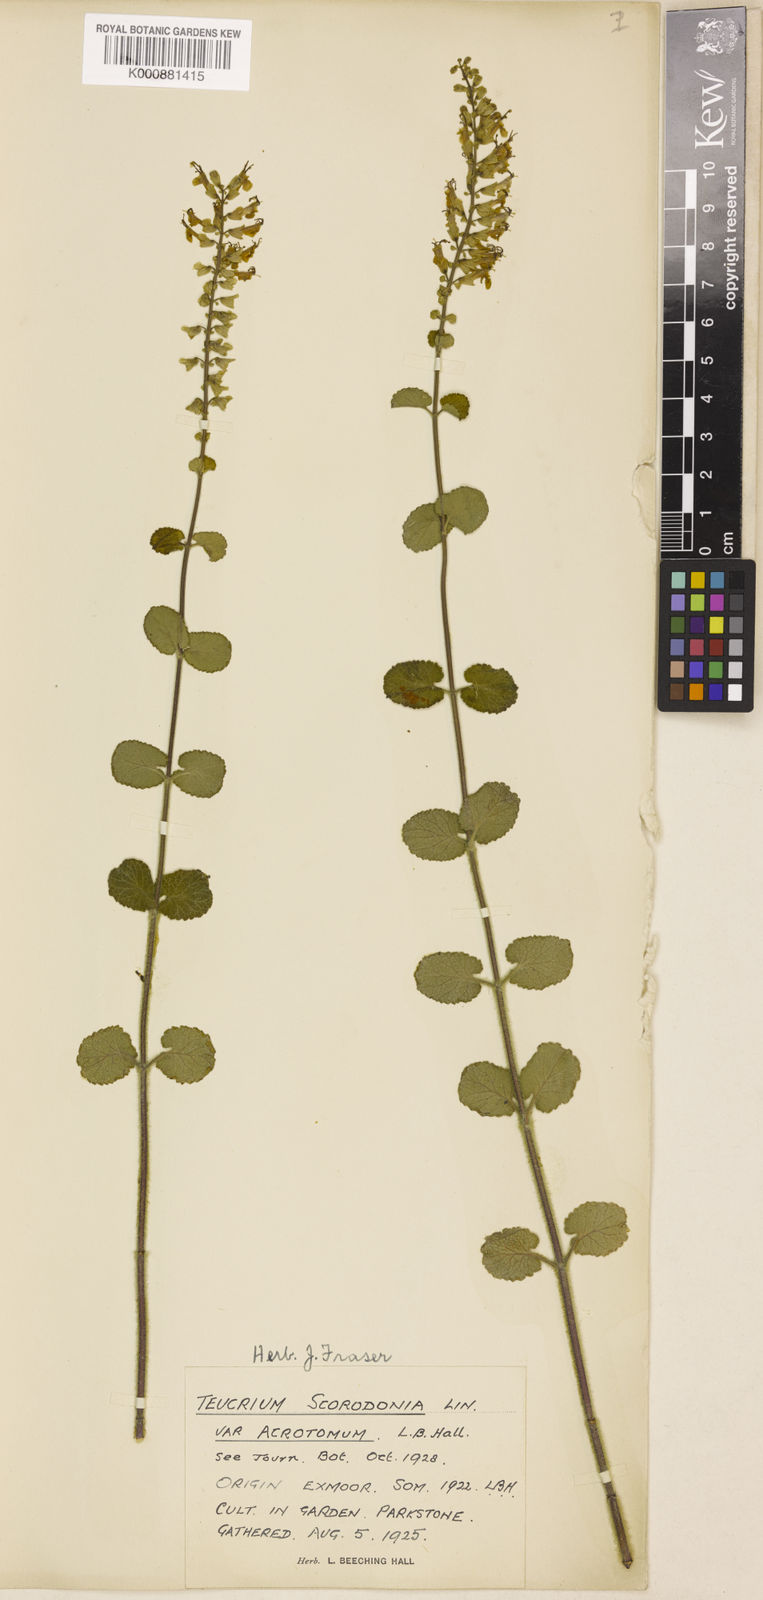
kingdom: Plantae
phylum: Tracheophyta
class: Magnoliopsida
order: Lamiales
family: Lamiaceae
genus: Teucrium
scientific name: Teucrium scorodonia
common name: Woodland germander
